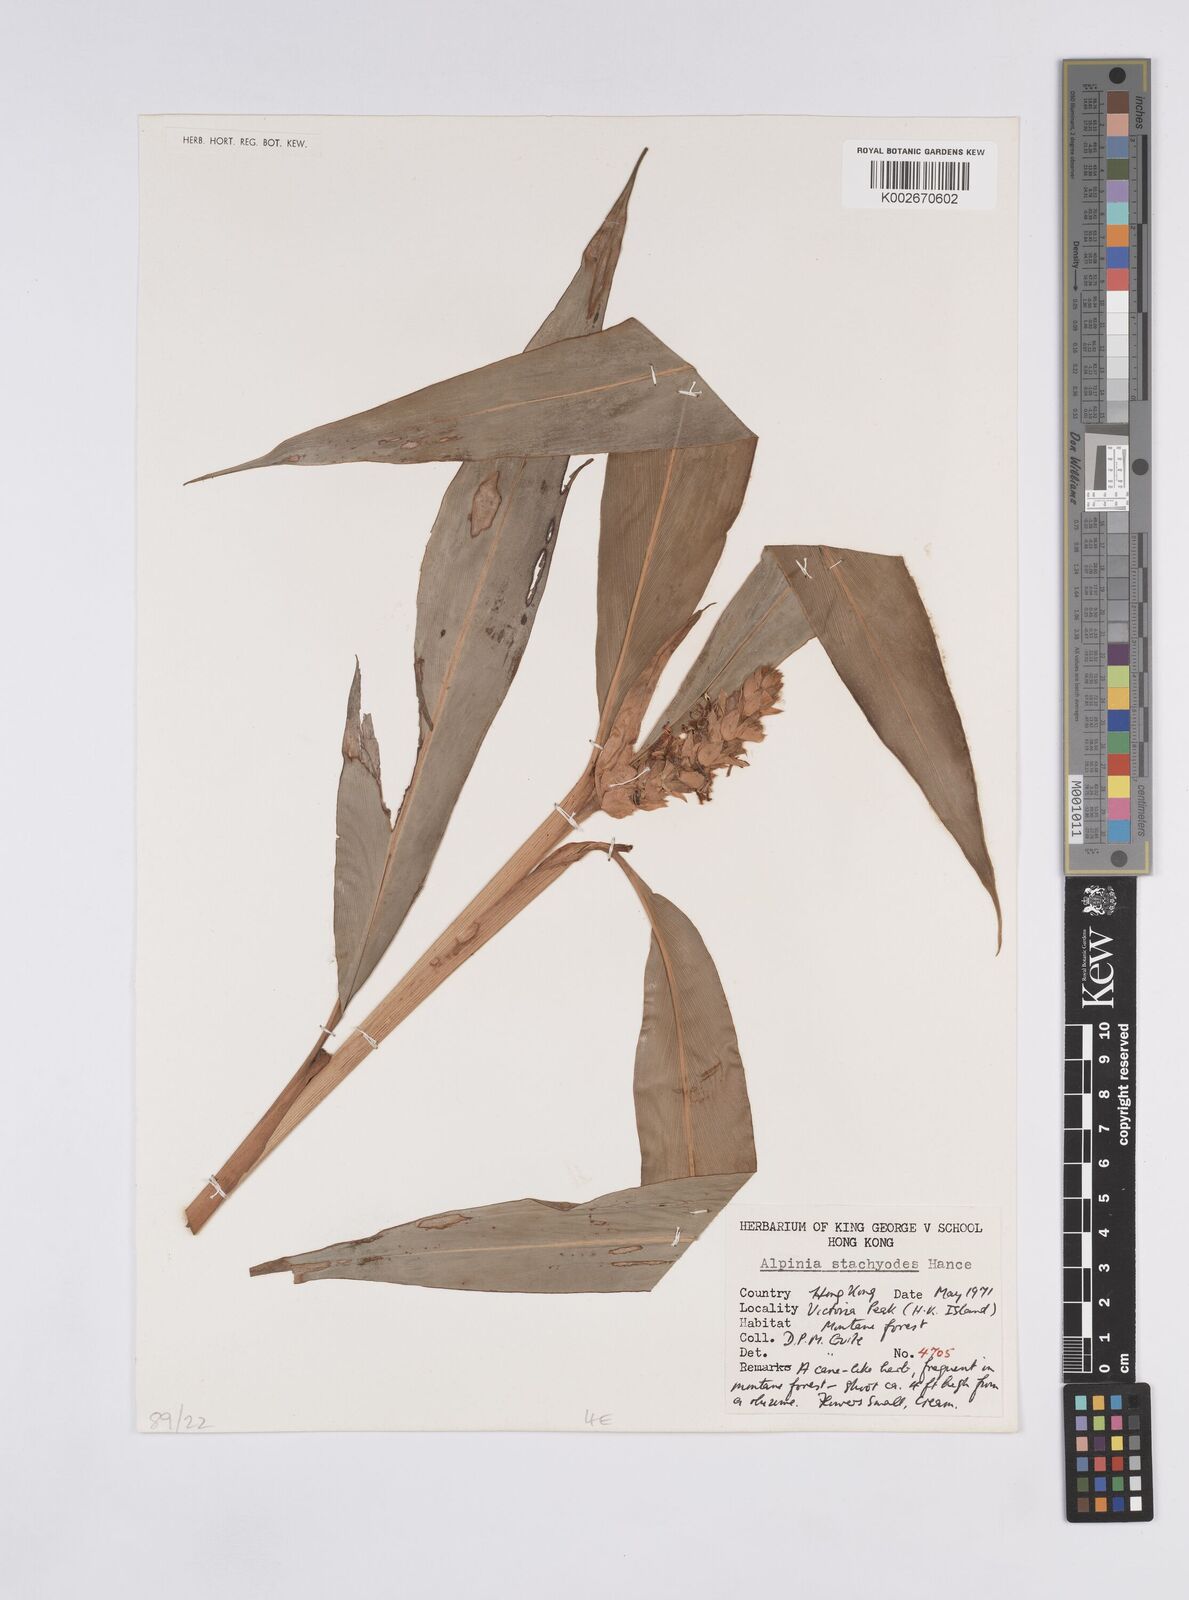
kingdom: Plantae
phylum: Tracheophyta
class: Liliopsida
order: Zingiberales
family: Zingiberaceae
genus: Alpinia
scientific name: Alpinia stachyodes
